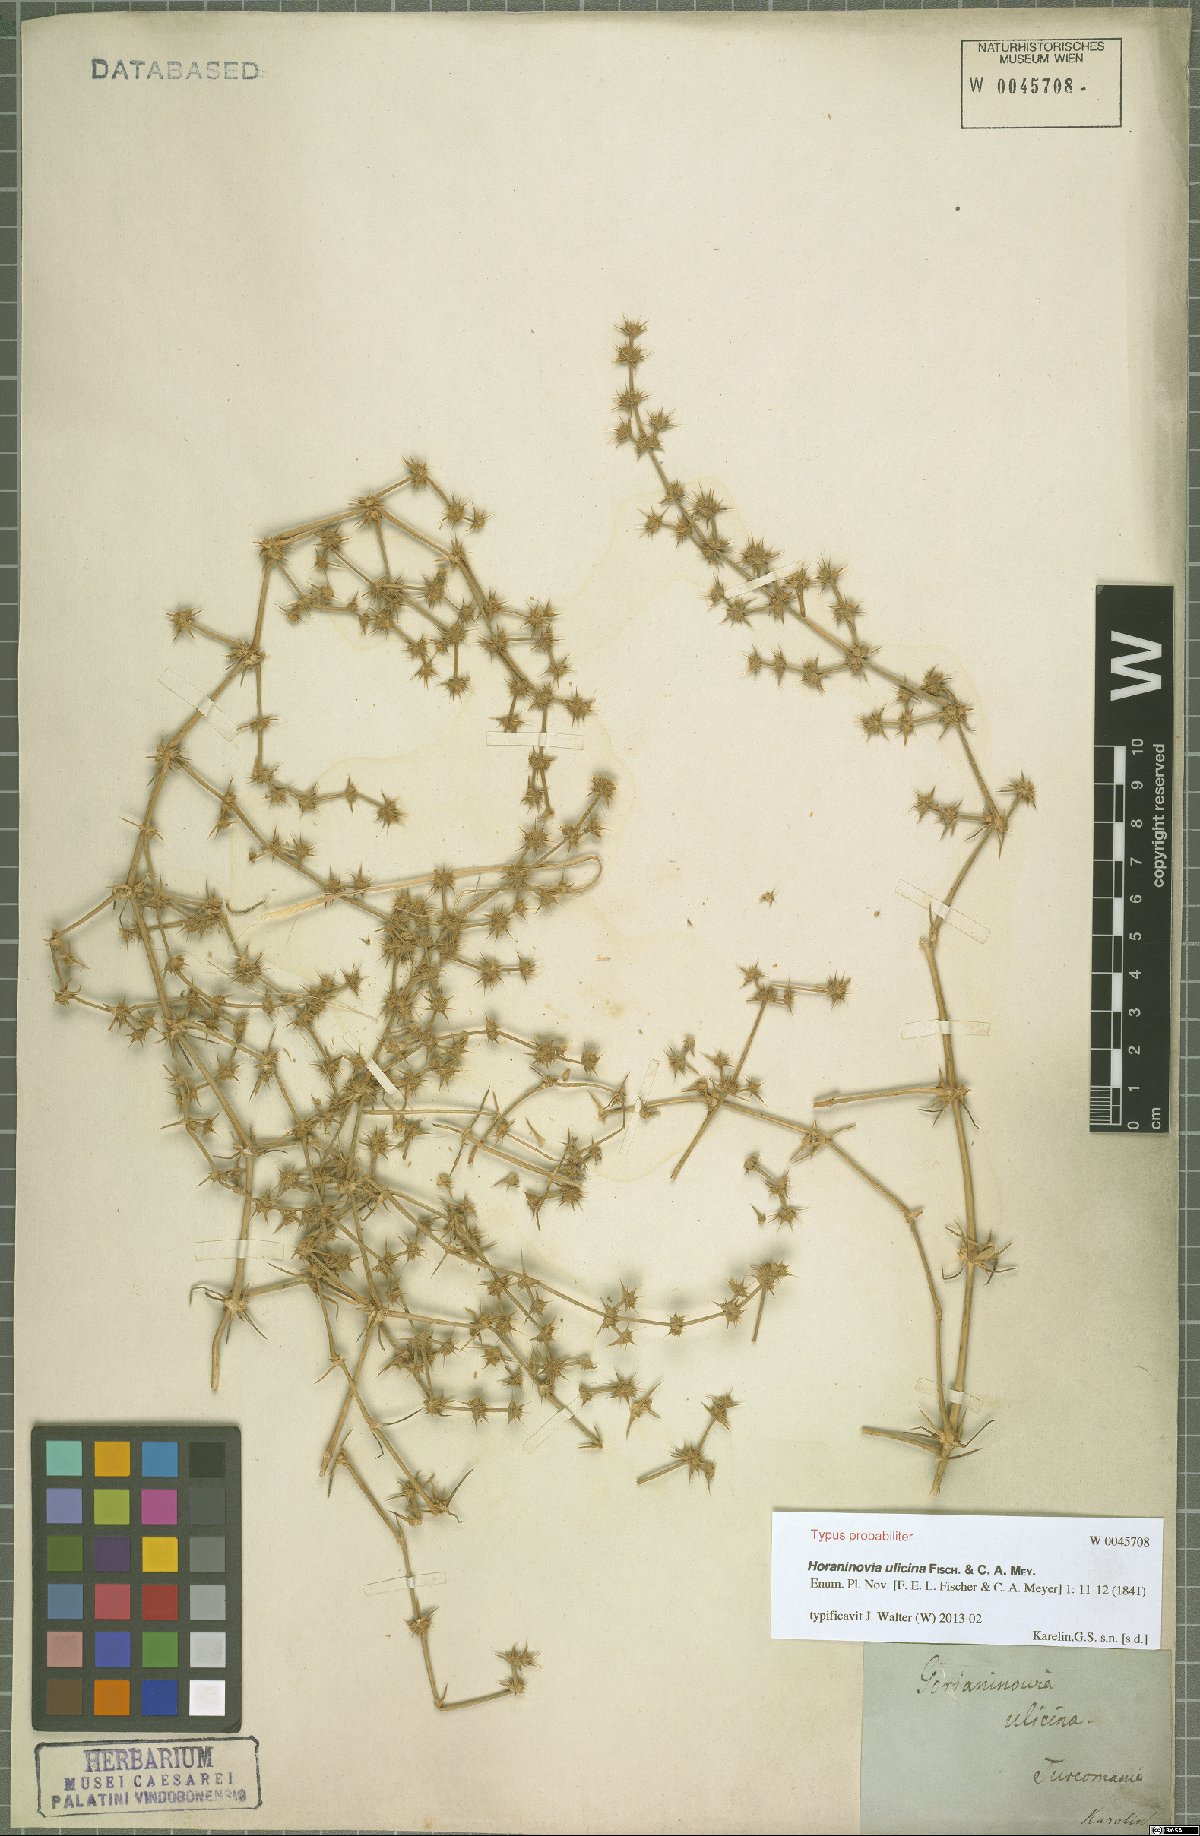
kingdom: Plantae
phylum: Tracheophyta
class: Magnoliopsida
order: Caryophyllales
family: Amaranthaceae
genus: Horaninovia
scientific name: Horaninovia ulicina
